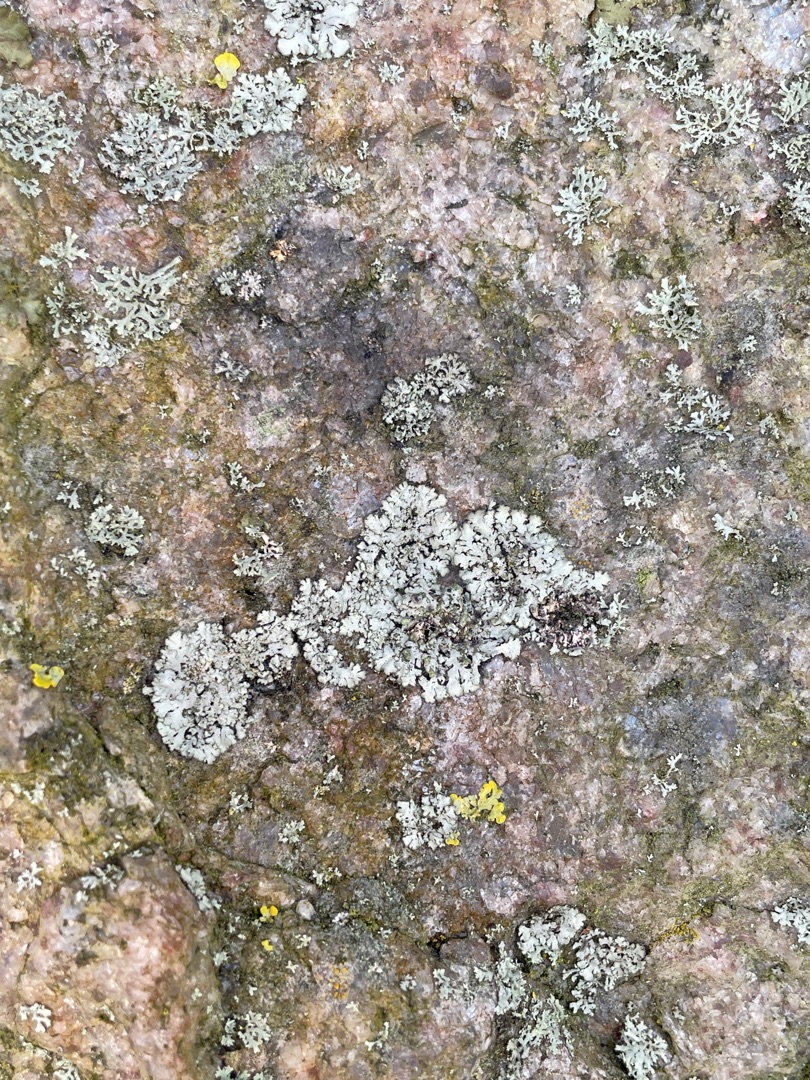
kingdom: Fungi
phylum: Ascomycota
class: Lecanoromycetes
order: Caliciales
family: Physciaceae
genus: Physcia
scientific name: Physcia
